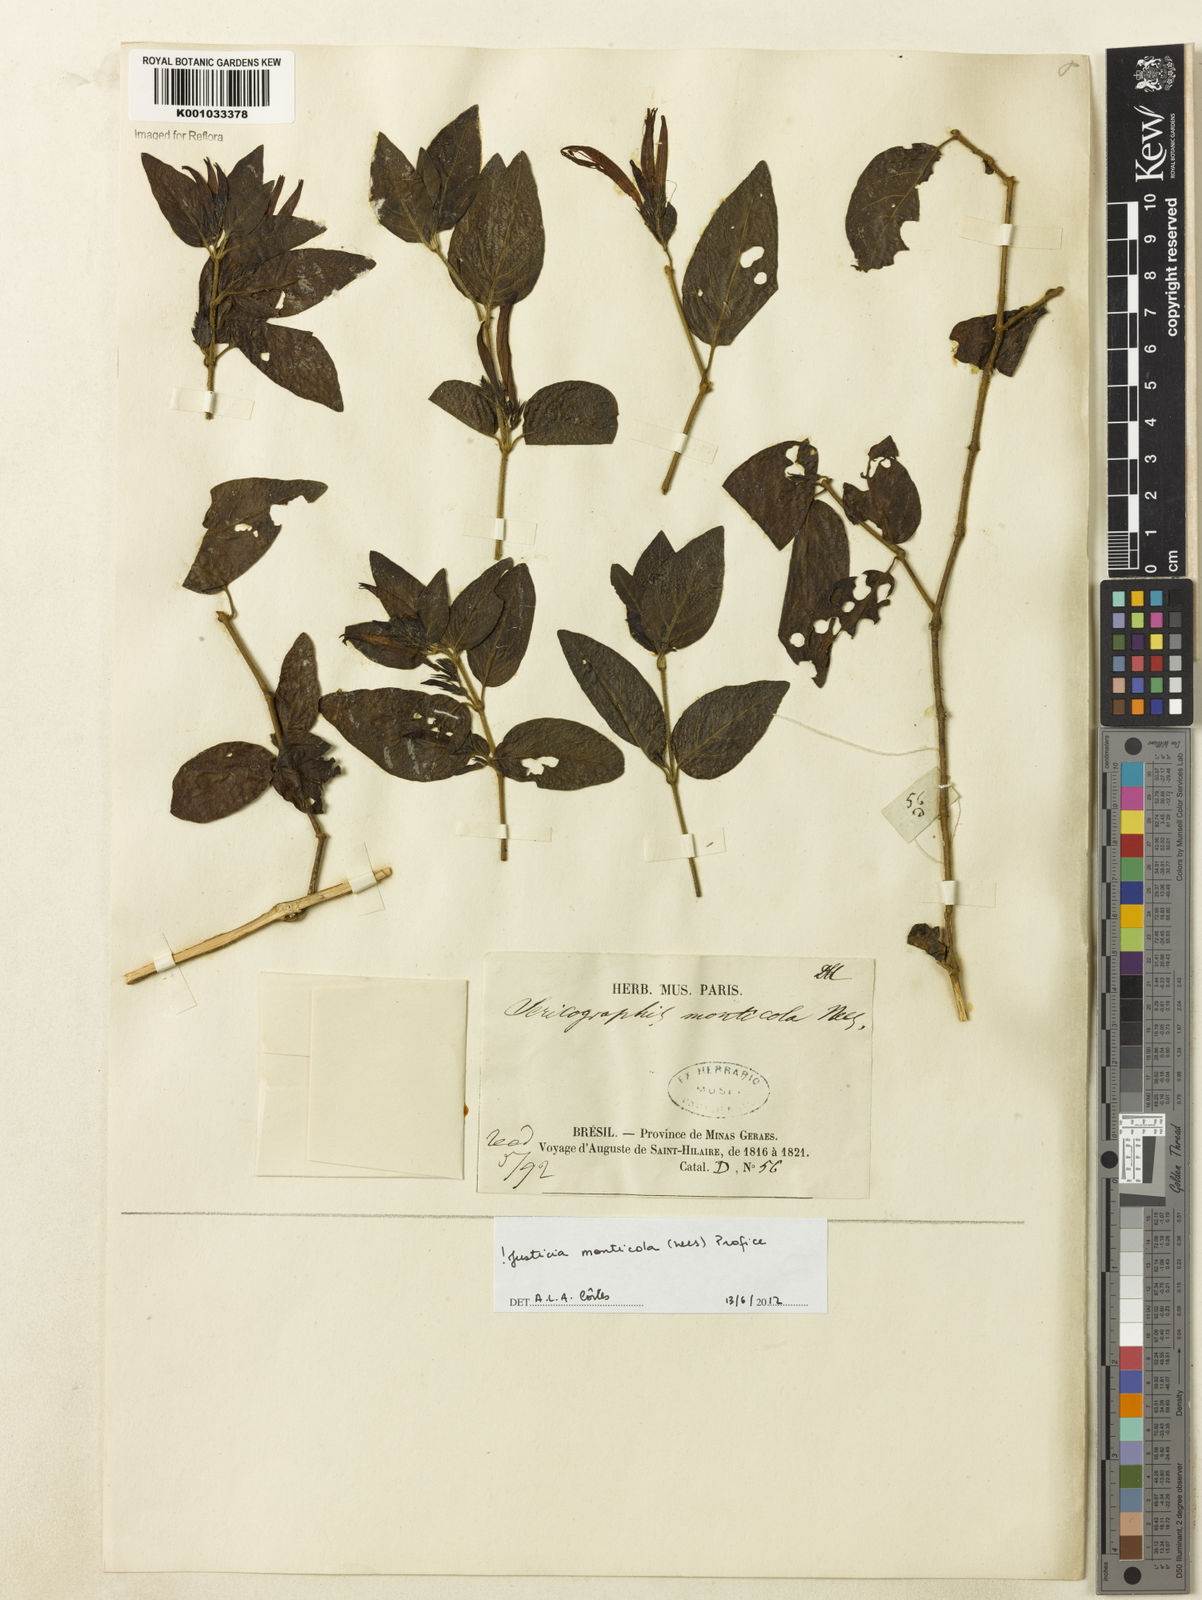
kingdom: Plantae
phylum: Tracheophyta
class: Magnoliopsida
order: Lamiales
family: Acanthaceae
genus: Justicia
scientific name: Justicia monticola
